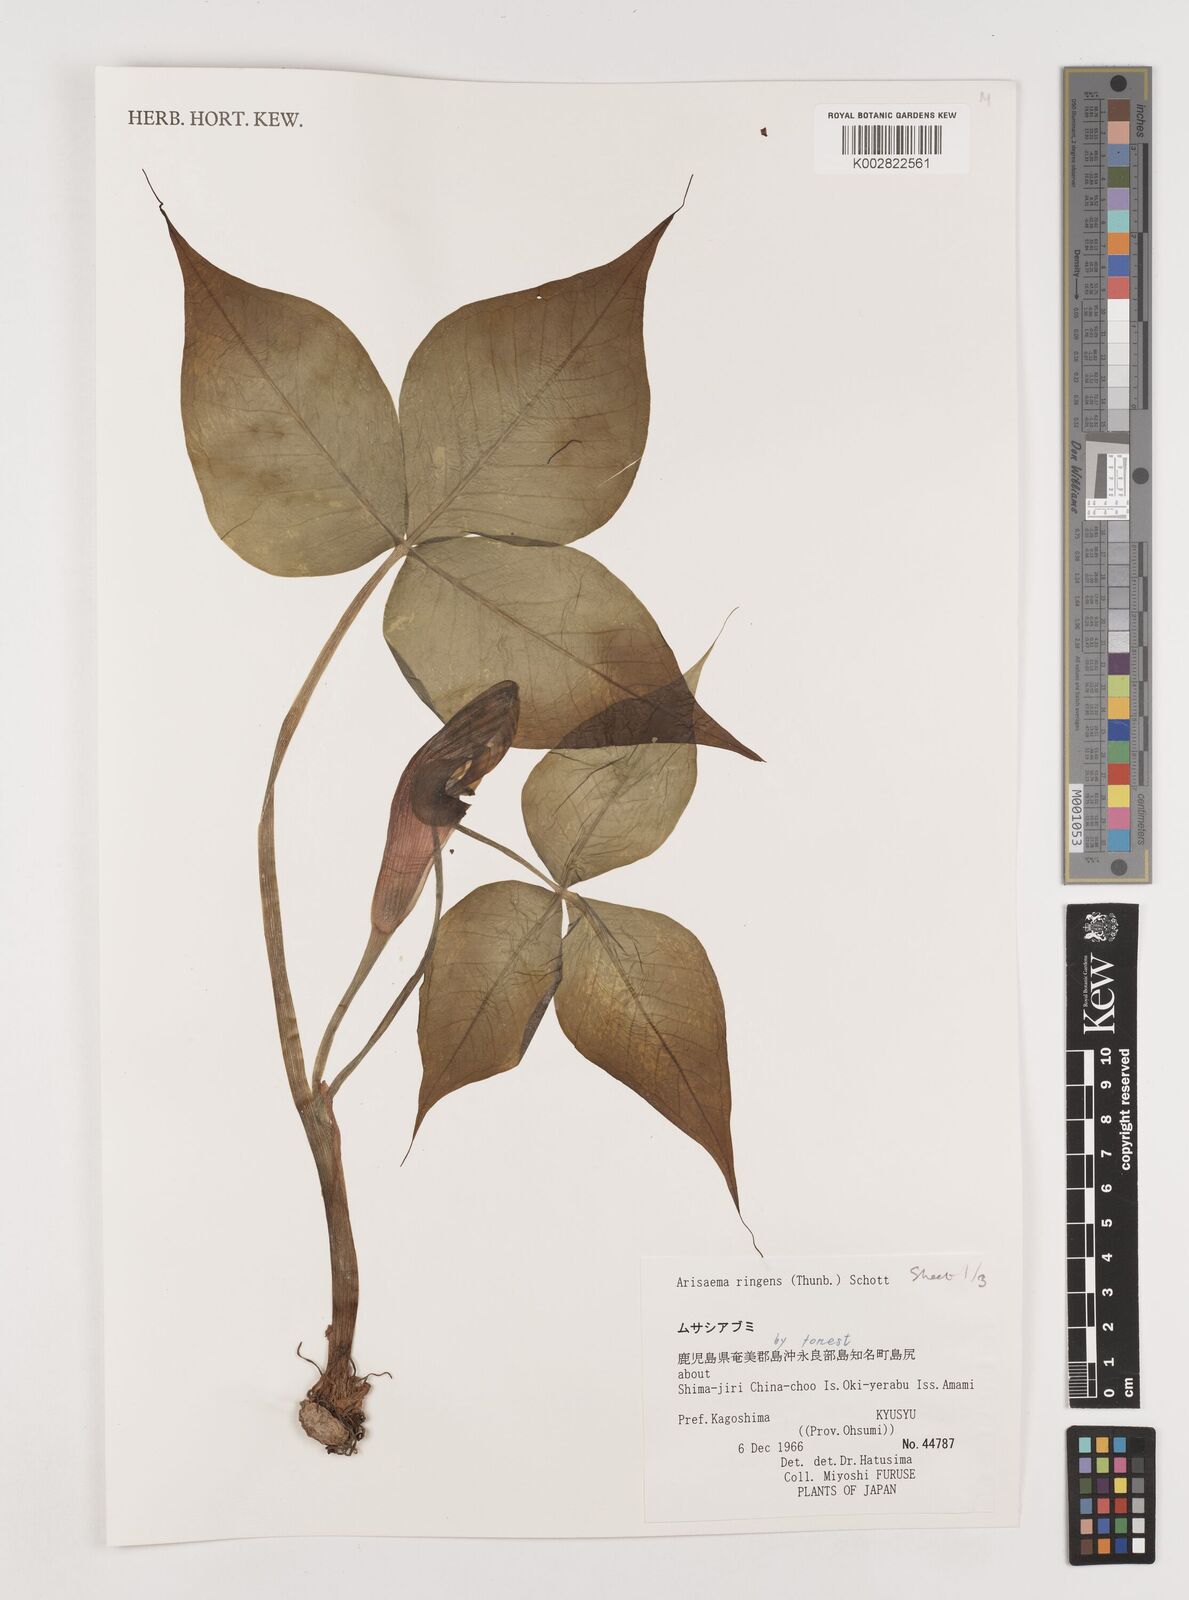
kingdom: Plantae
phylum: Tracheophyta
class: Liliopsida
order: Alismatales
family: Araceae
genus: Arisaema
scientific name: Arisaema ringens
